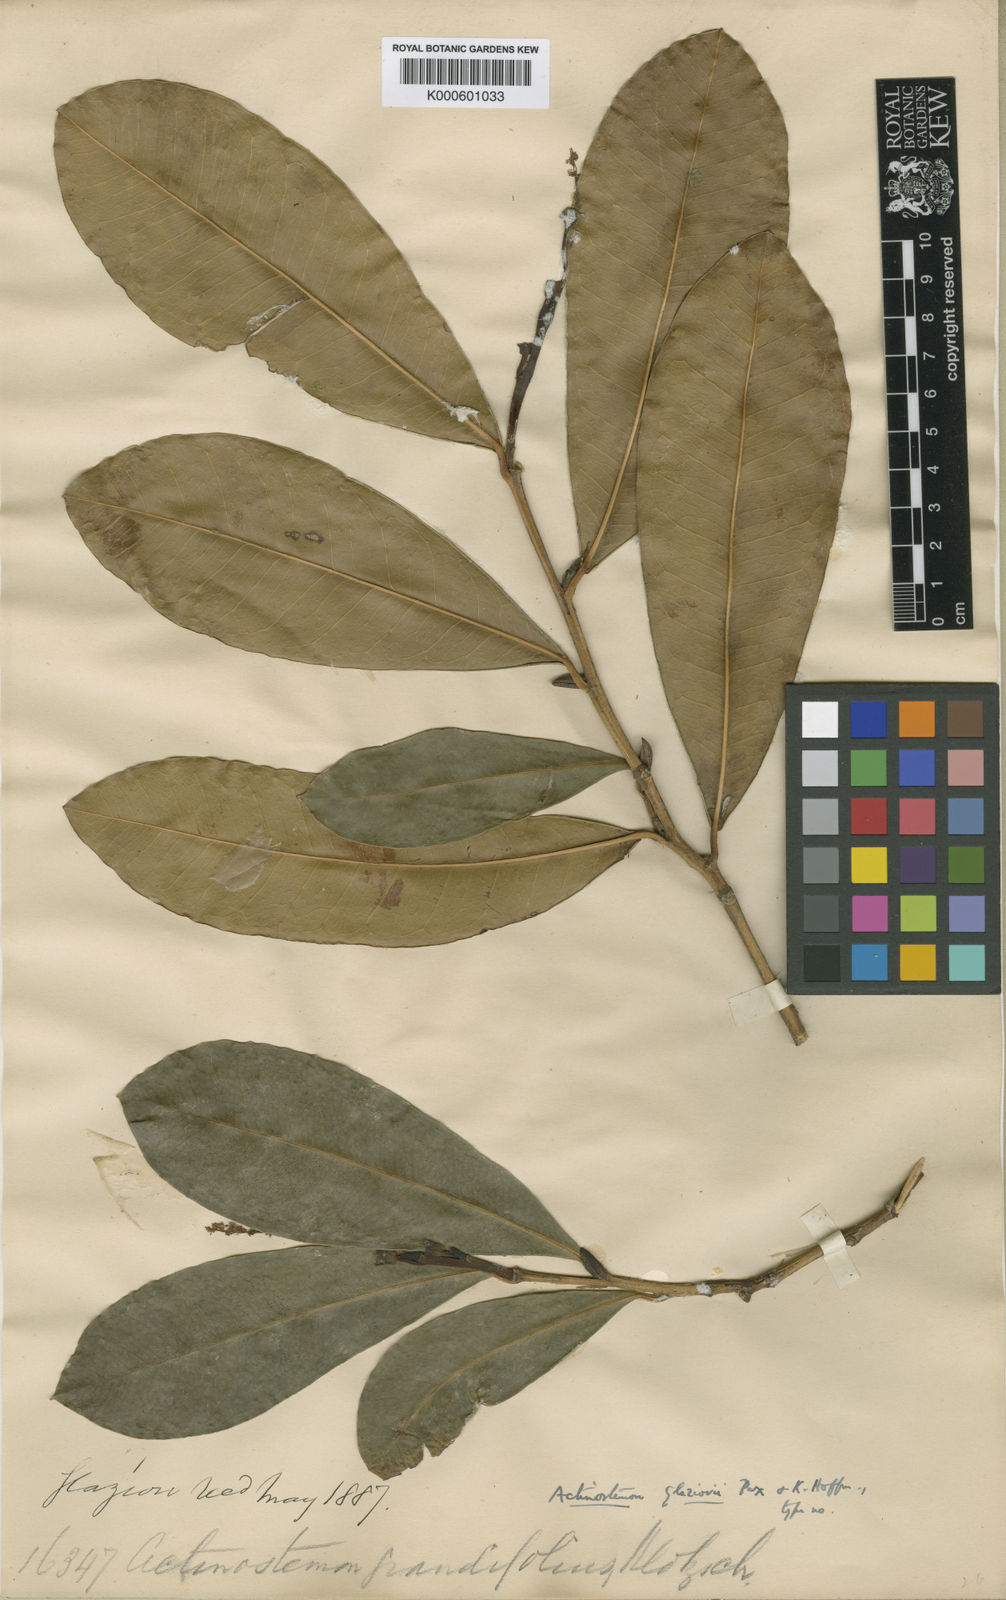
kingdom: Plantae
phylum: Tracheophyta
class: Magnoliopsida
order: Malpighiales
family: Euphorbiaceae
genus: Actinostemon
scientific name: Actinostemon glaziovii
